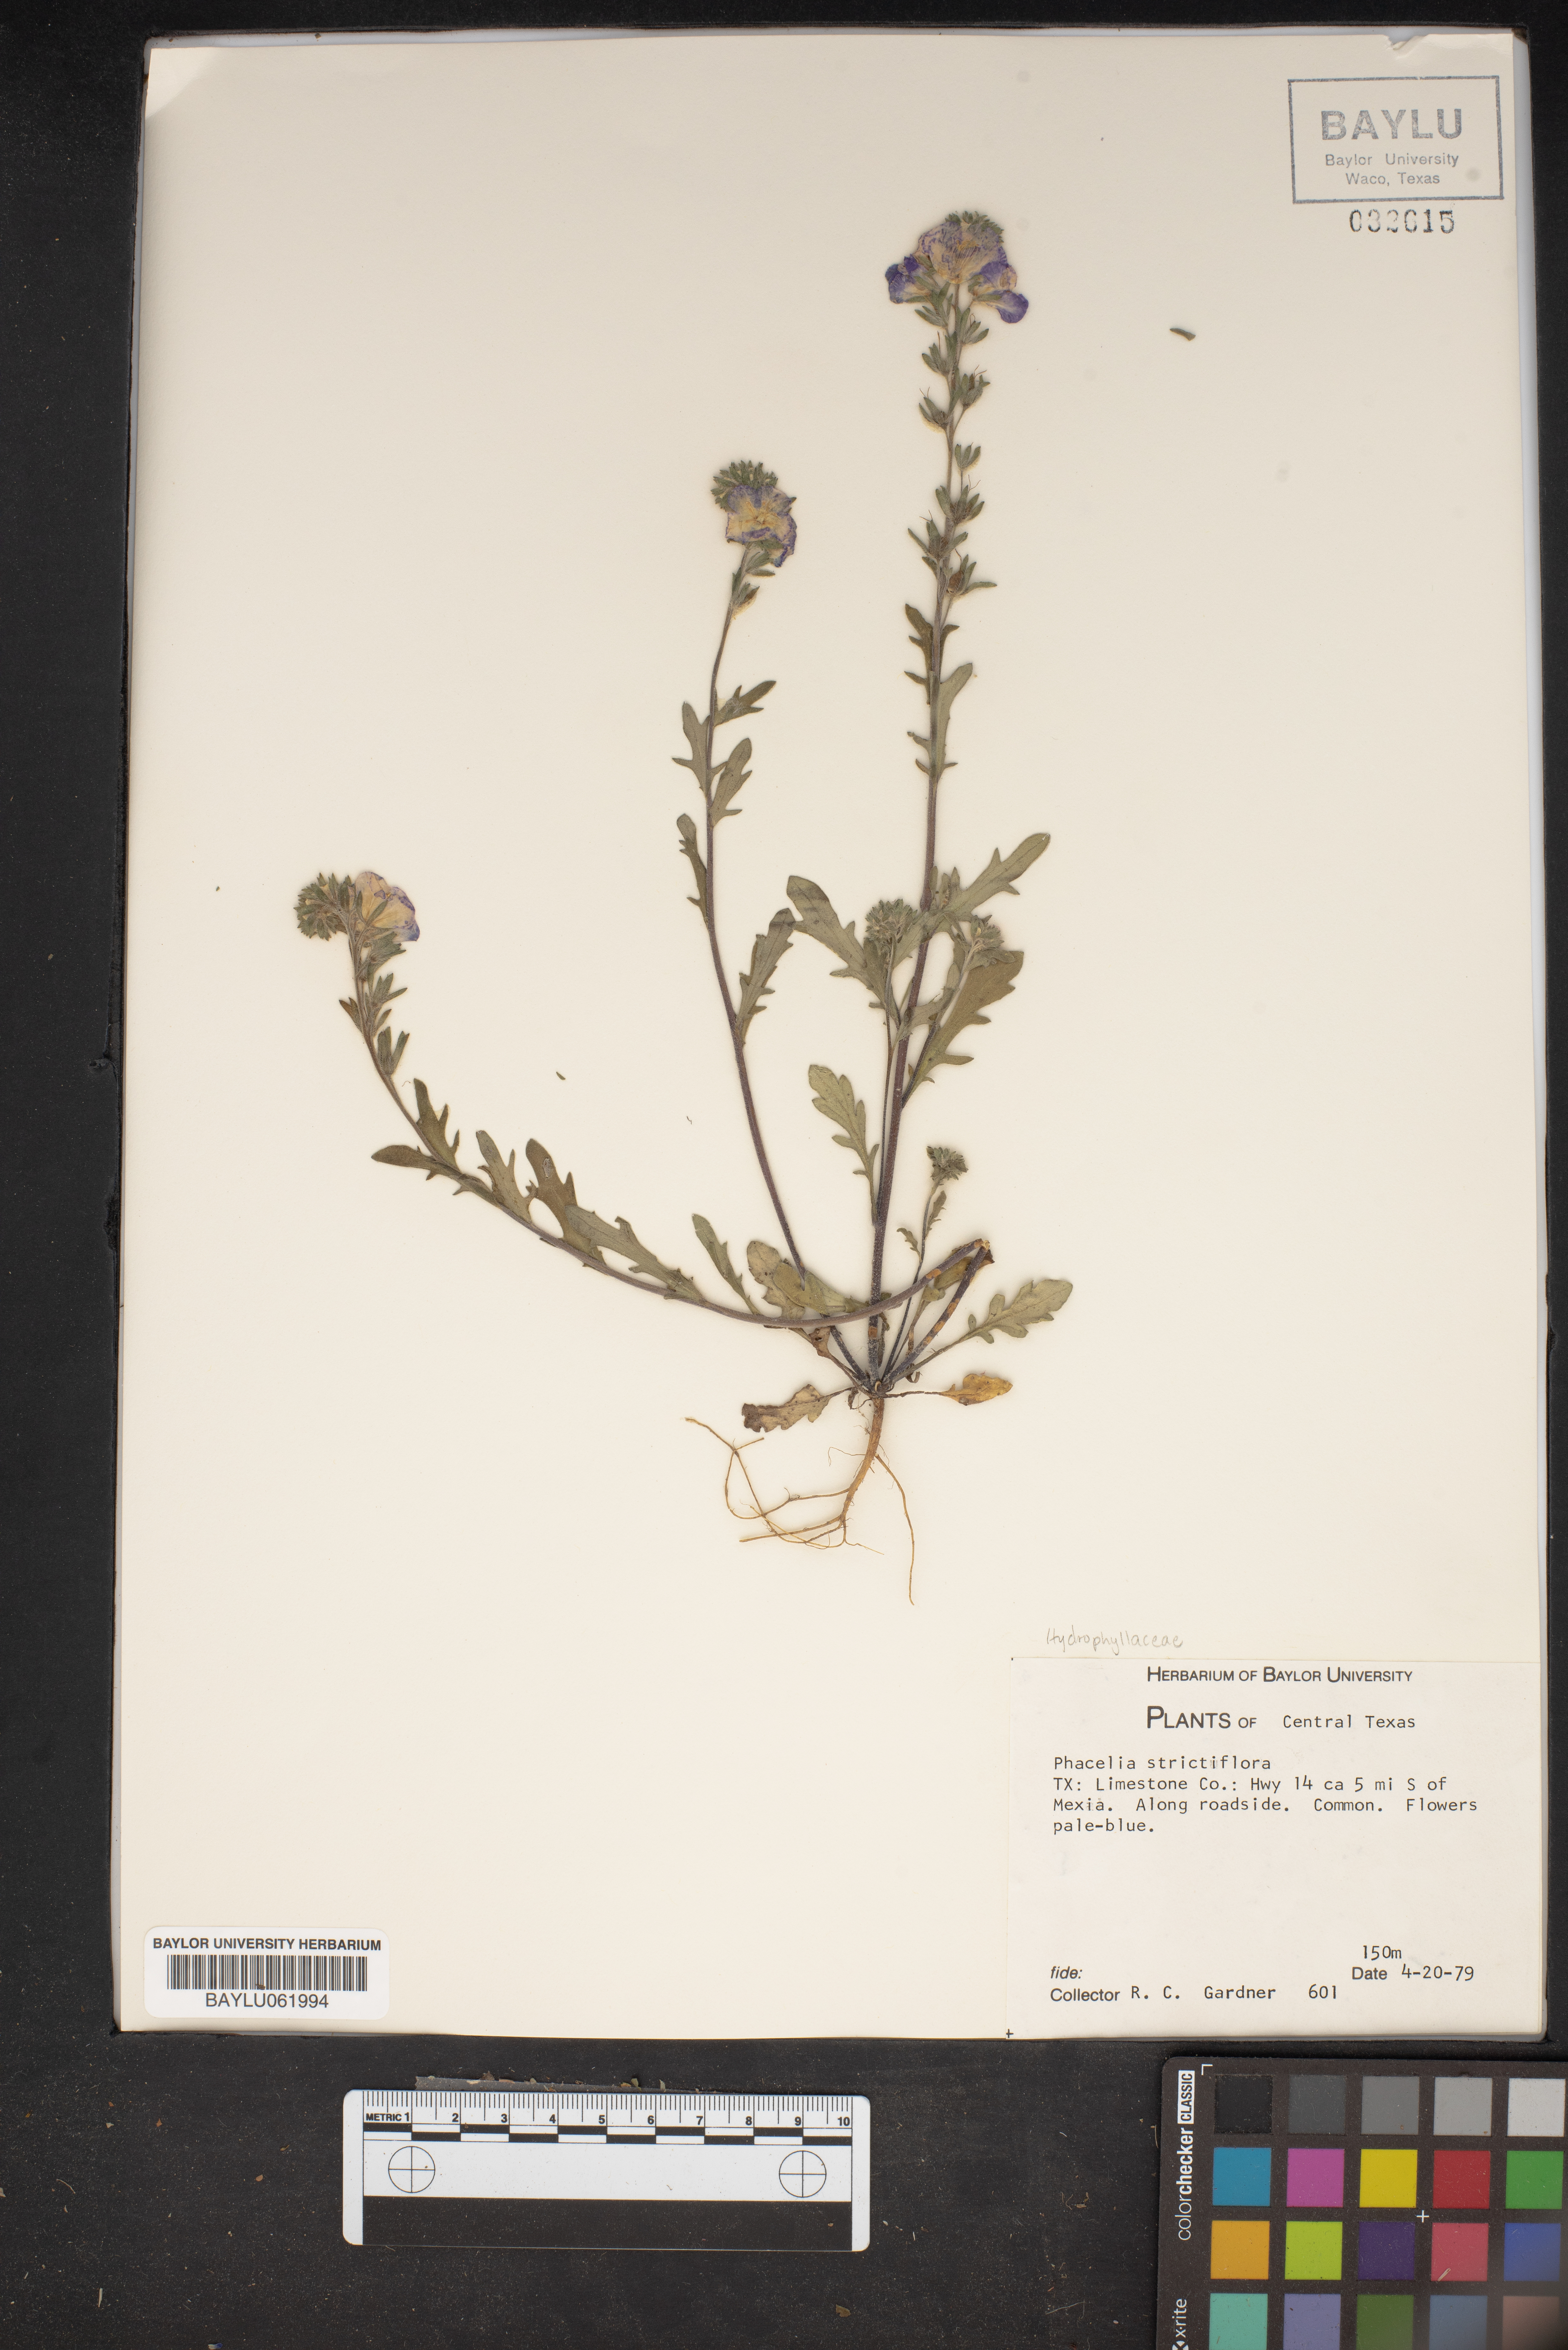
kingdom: Plantae
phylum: Tracheophyta
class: Magnoliopsida
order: Boraginales
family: Hydrophyllaceae
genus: Phacelia
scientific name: Phacelia strictiflora
